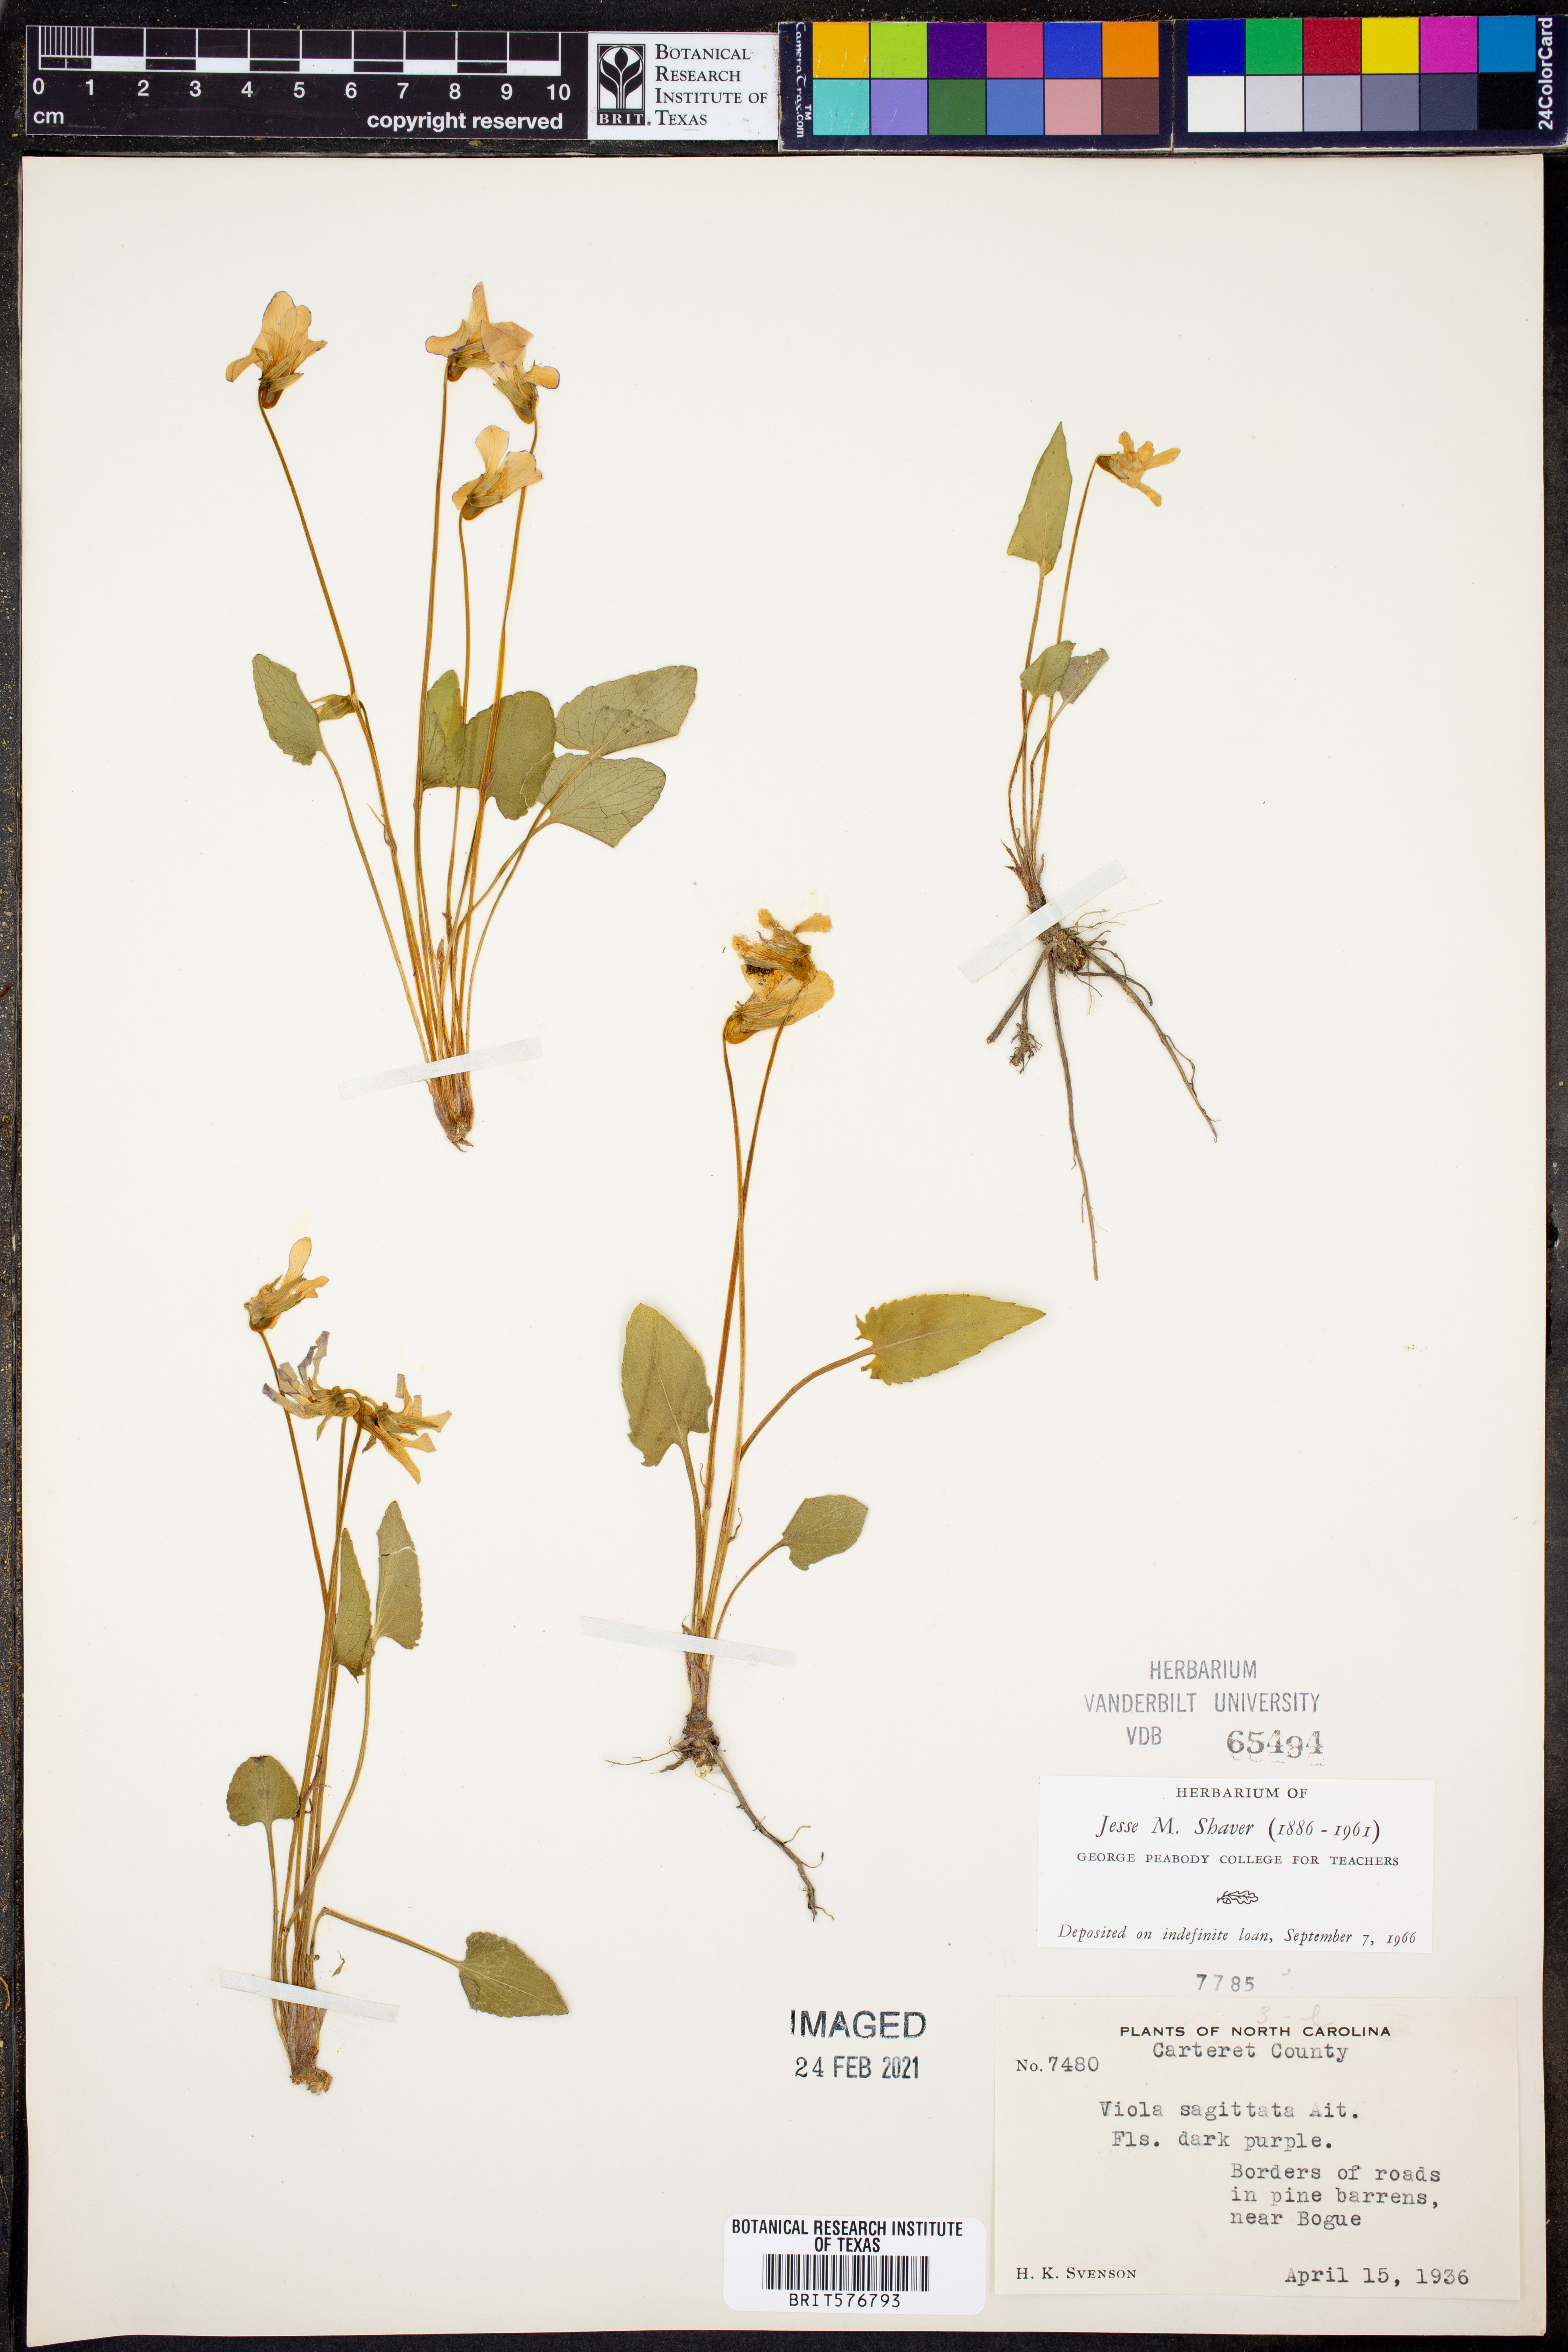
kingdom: Plantae
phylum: Tracheophyta
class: Magnoliopsida
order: Malpighiales
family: Violaceae
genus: Viola
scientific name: Viola sagittata
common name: Arrowhead violet
